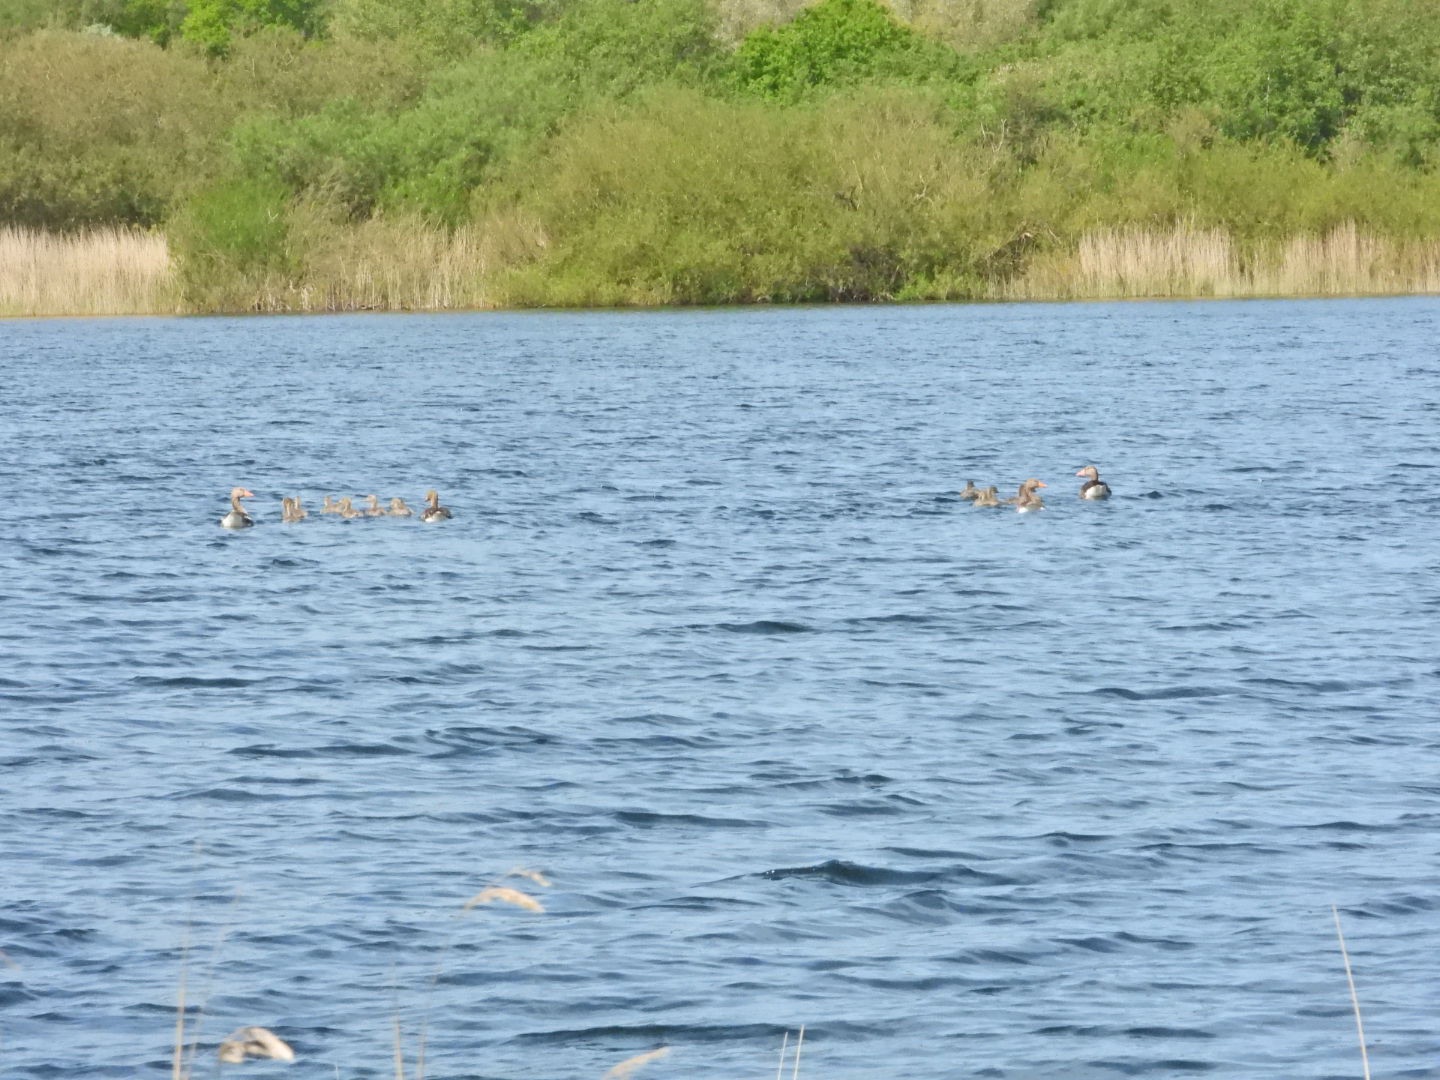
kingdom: Animalia
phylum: Chordata
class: Aves
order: Anseriformes
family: Anatidae
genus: Anser
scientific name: Anser anser
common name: Grågås
